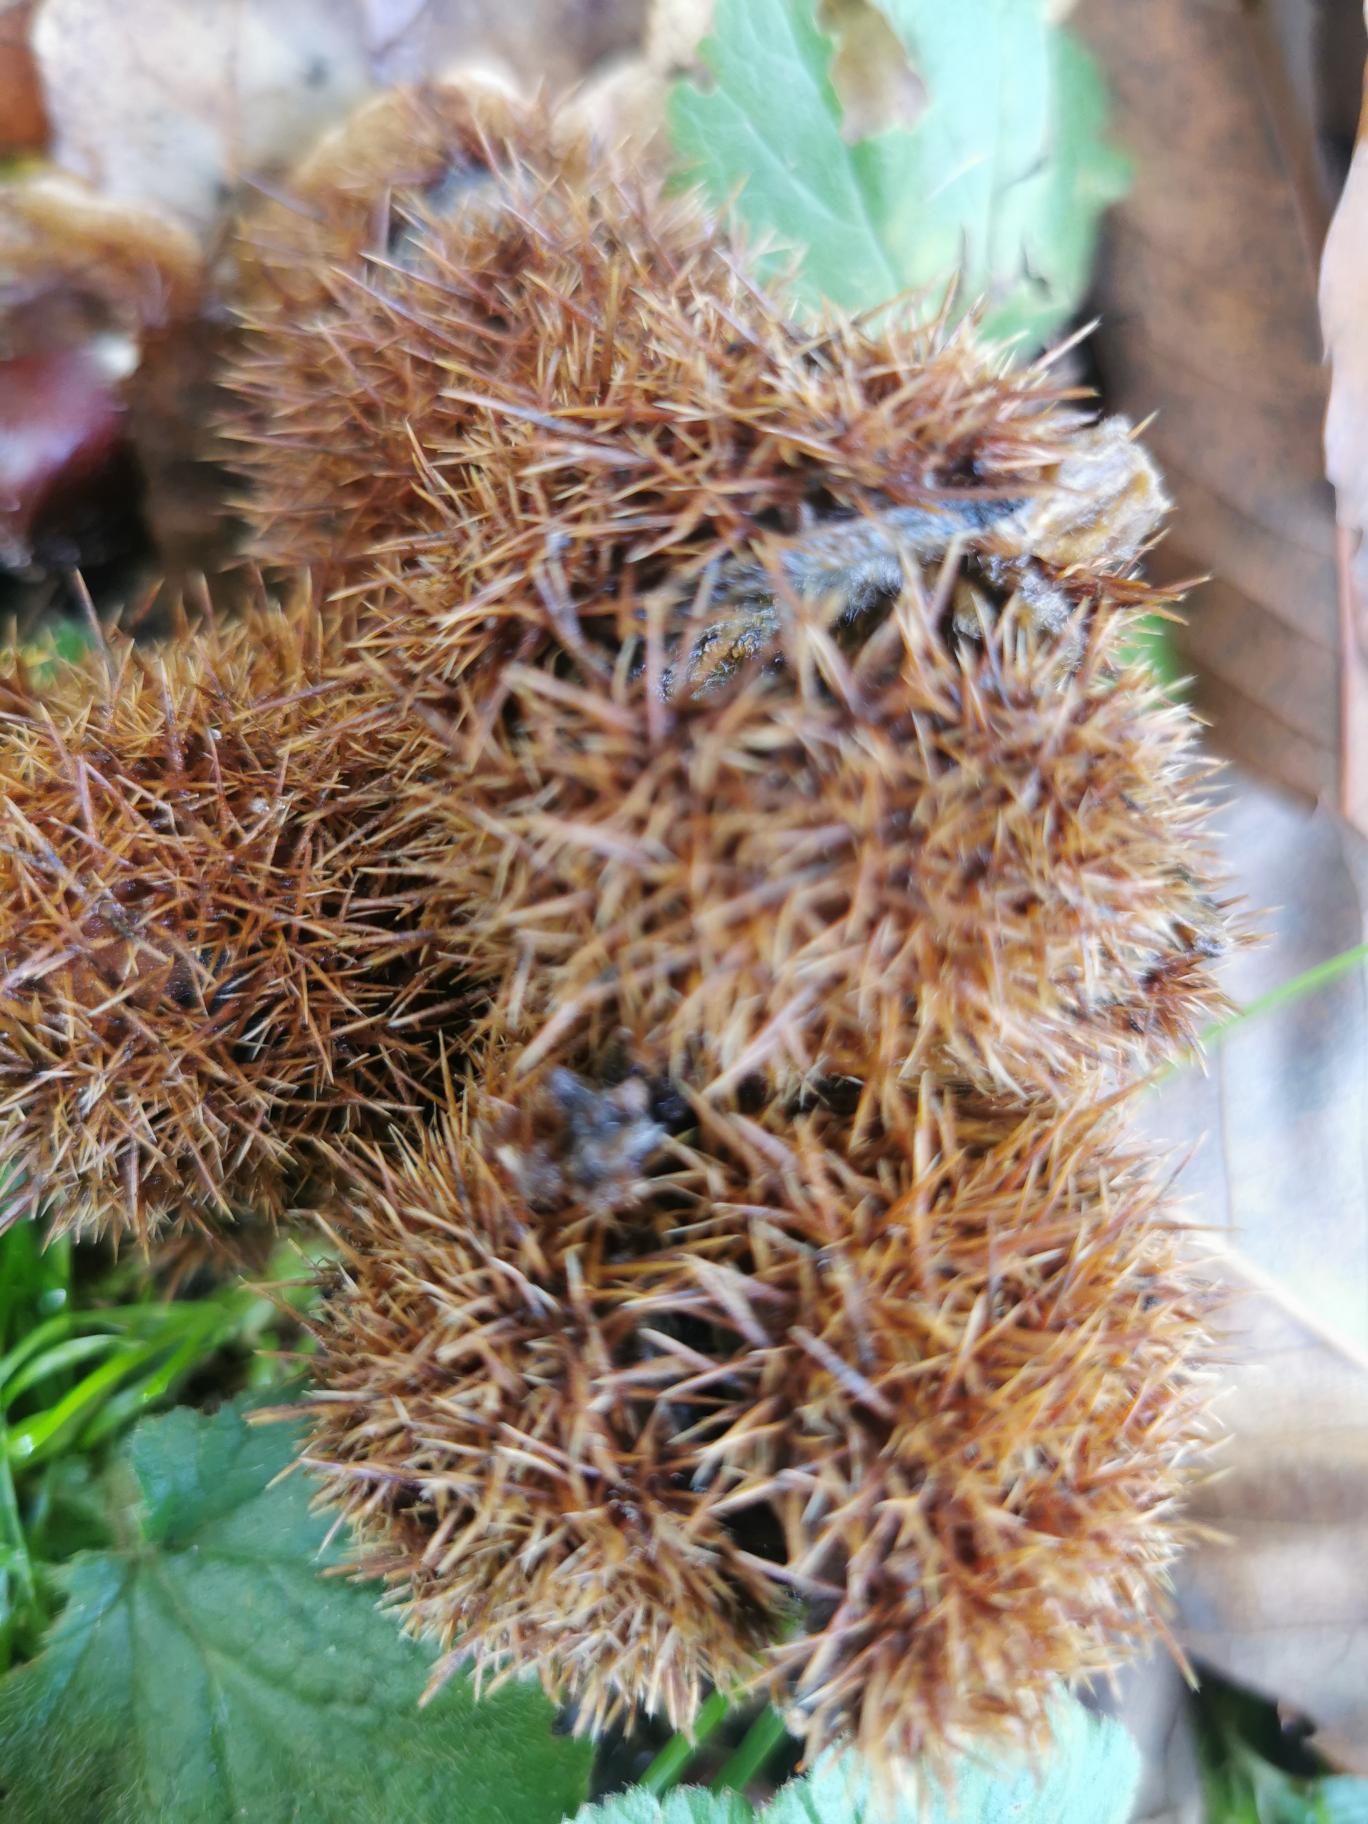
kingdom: Plantae
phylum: Tracheophyta
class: Magnoliopsida
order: Fagales
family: Fagaceae
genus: Castanea
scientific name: Castanea sativa
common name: Ægte kastanie
